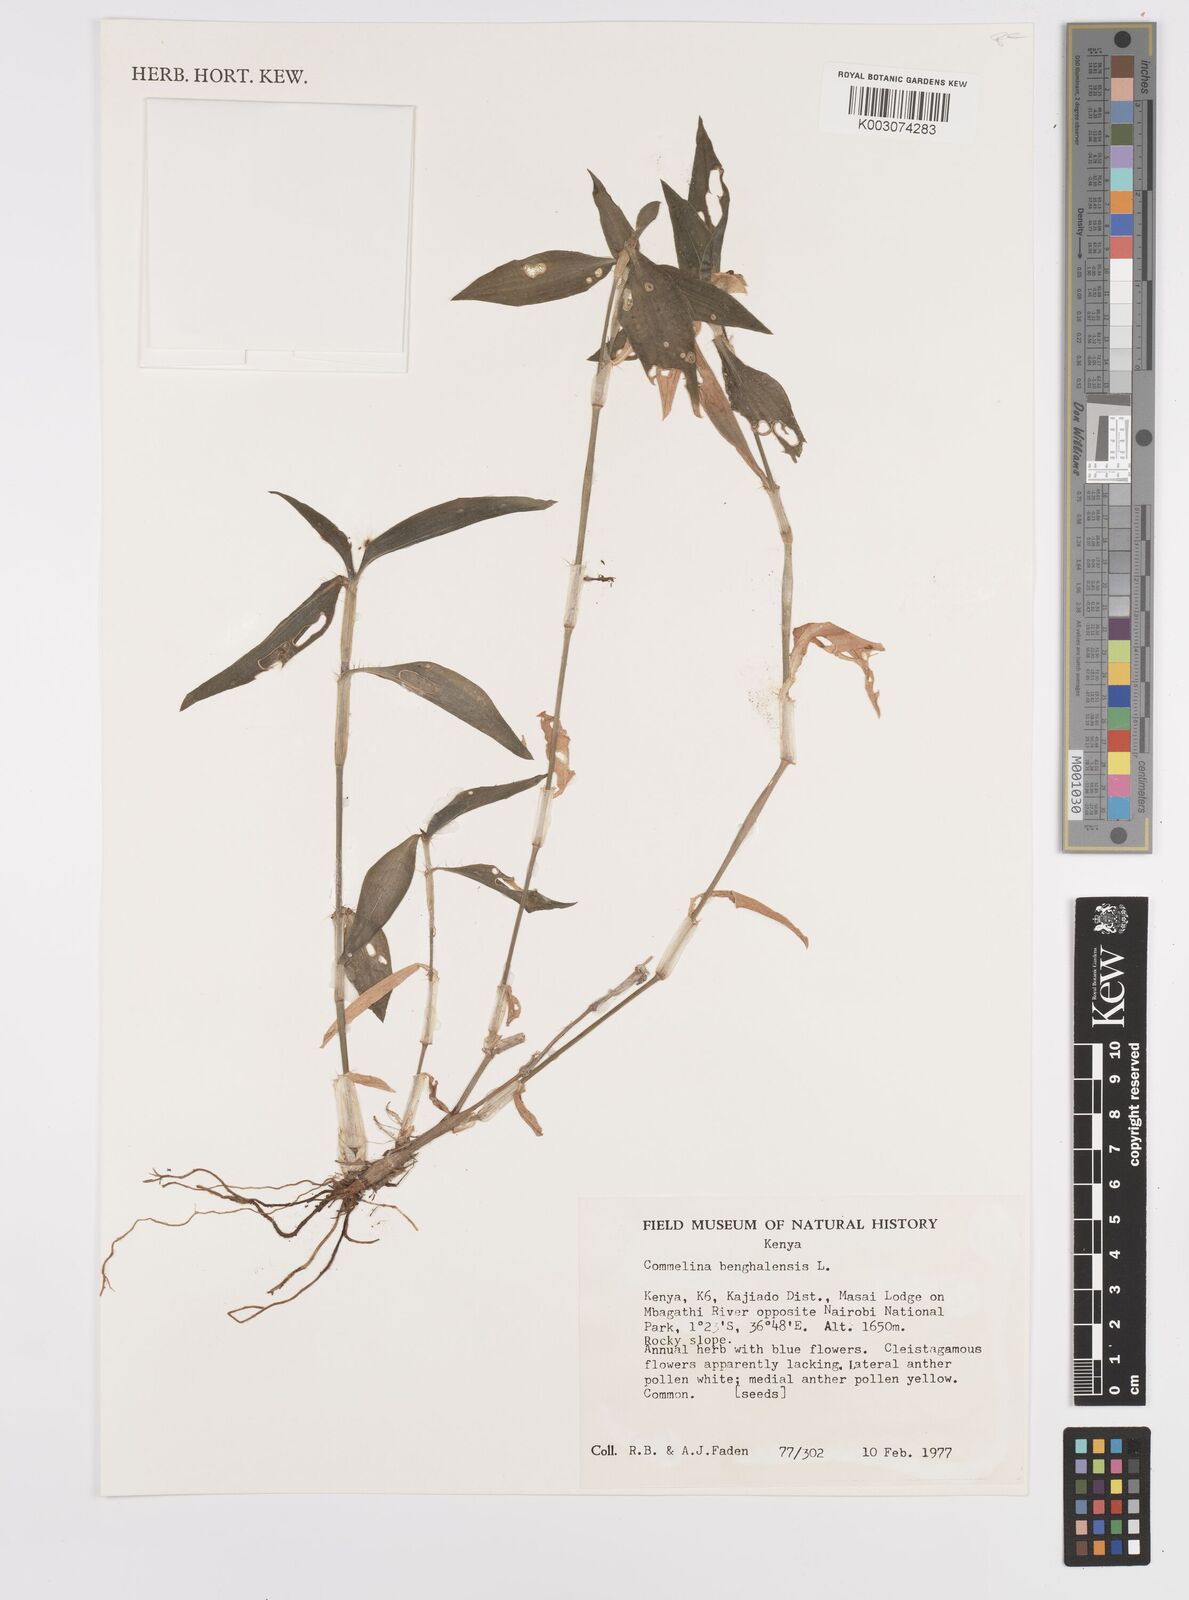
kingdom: Plantae
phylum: Tracheophyta
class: Liliopsida
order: Commelinales
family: Commelinaceae
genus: Commelina
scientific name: Commelina benghalensis
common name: Jio
